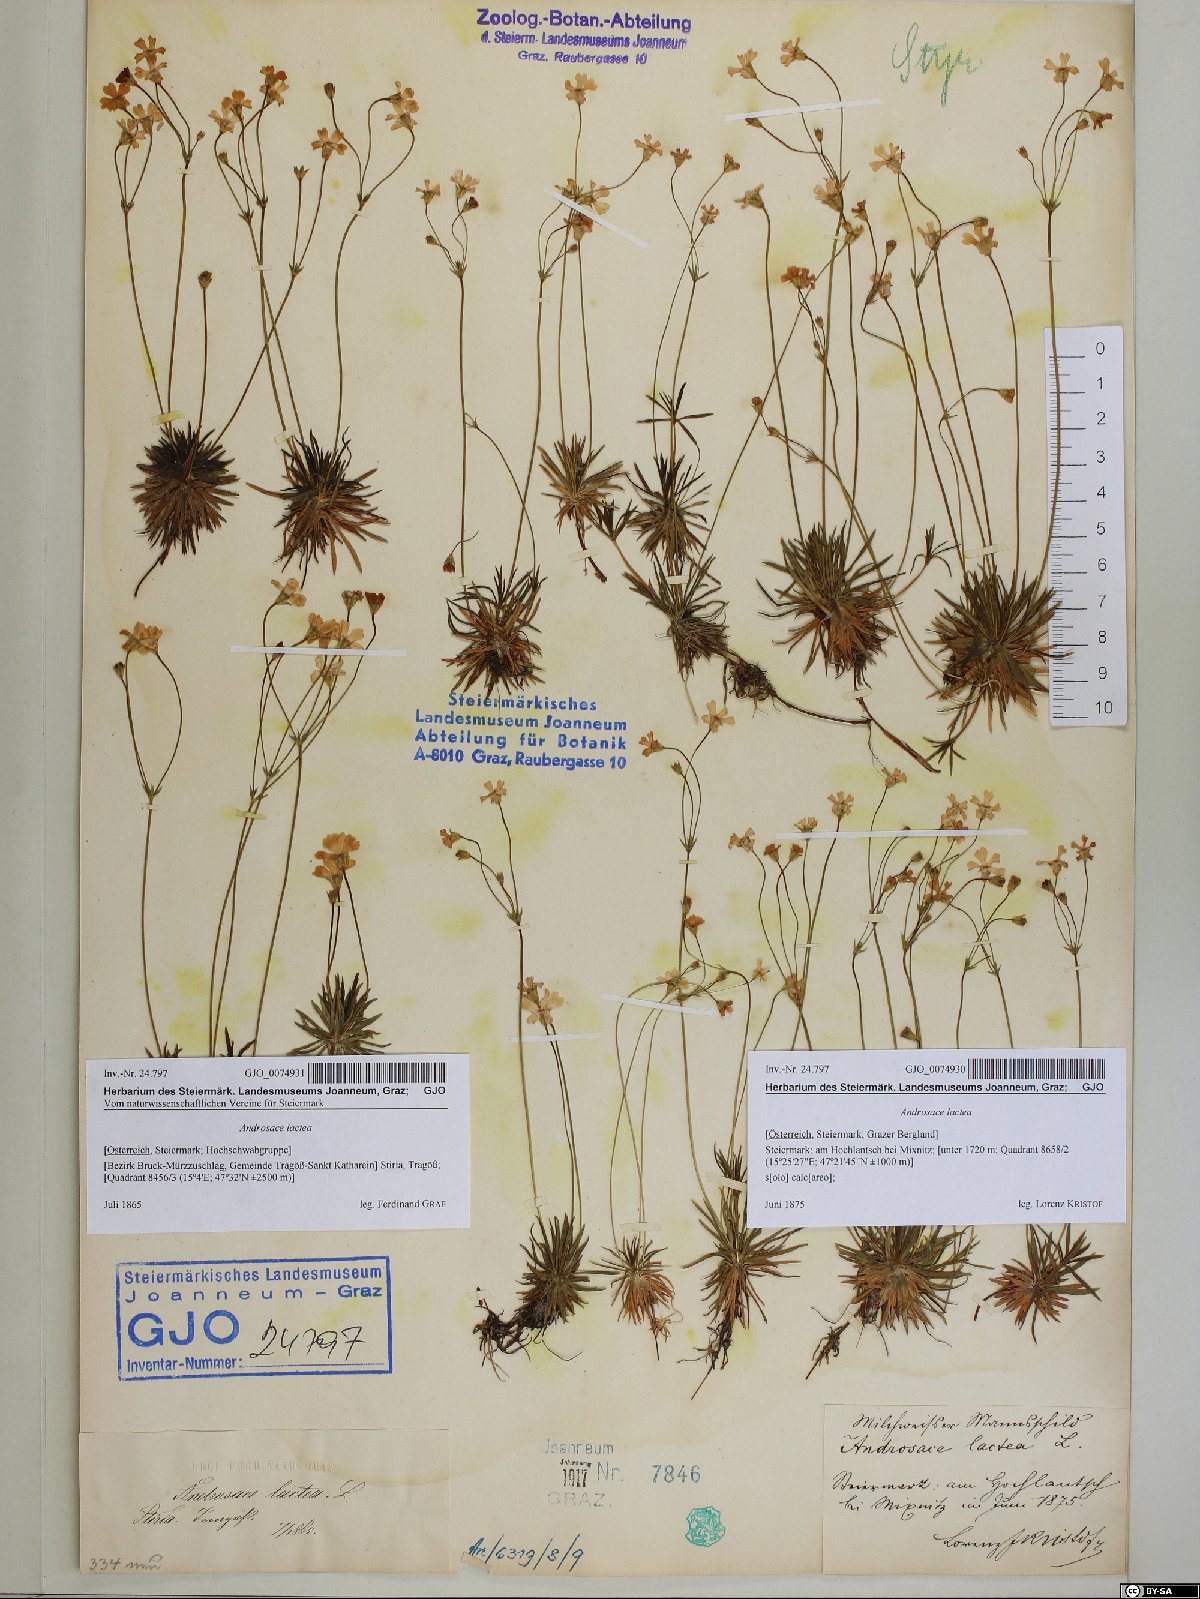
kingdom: Plantae
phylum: Tracheophyta
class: Magnoliopsida
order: Ericales
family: Primulaceae
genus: Androsace
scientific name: Androsace lactea
